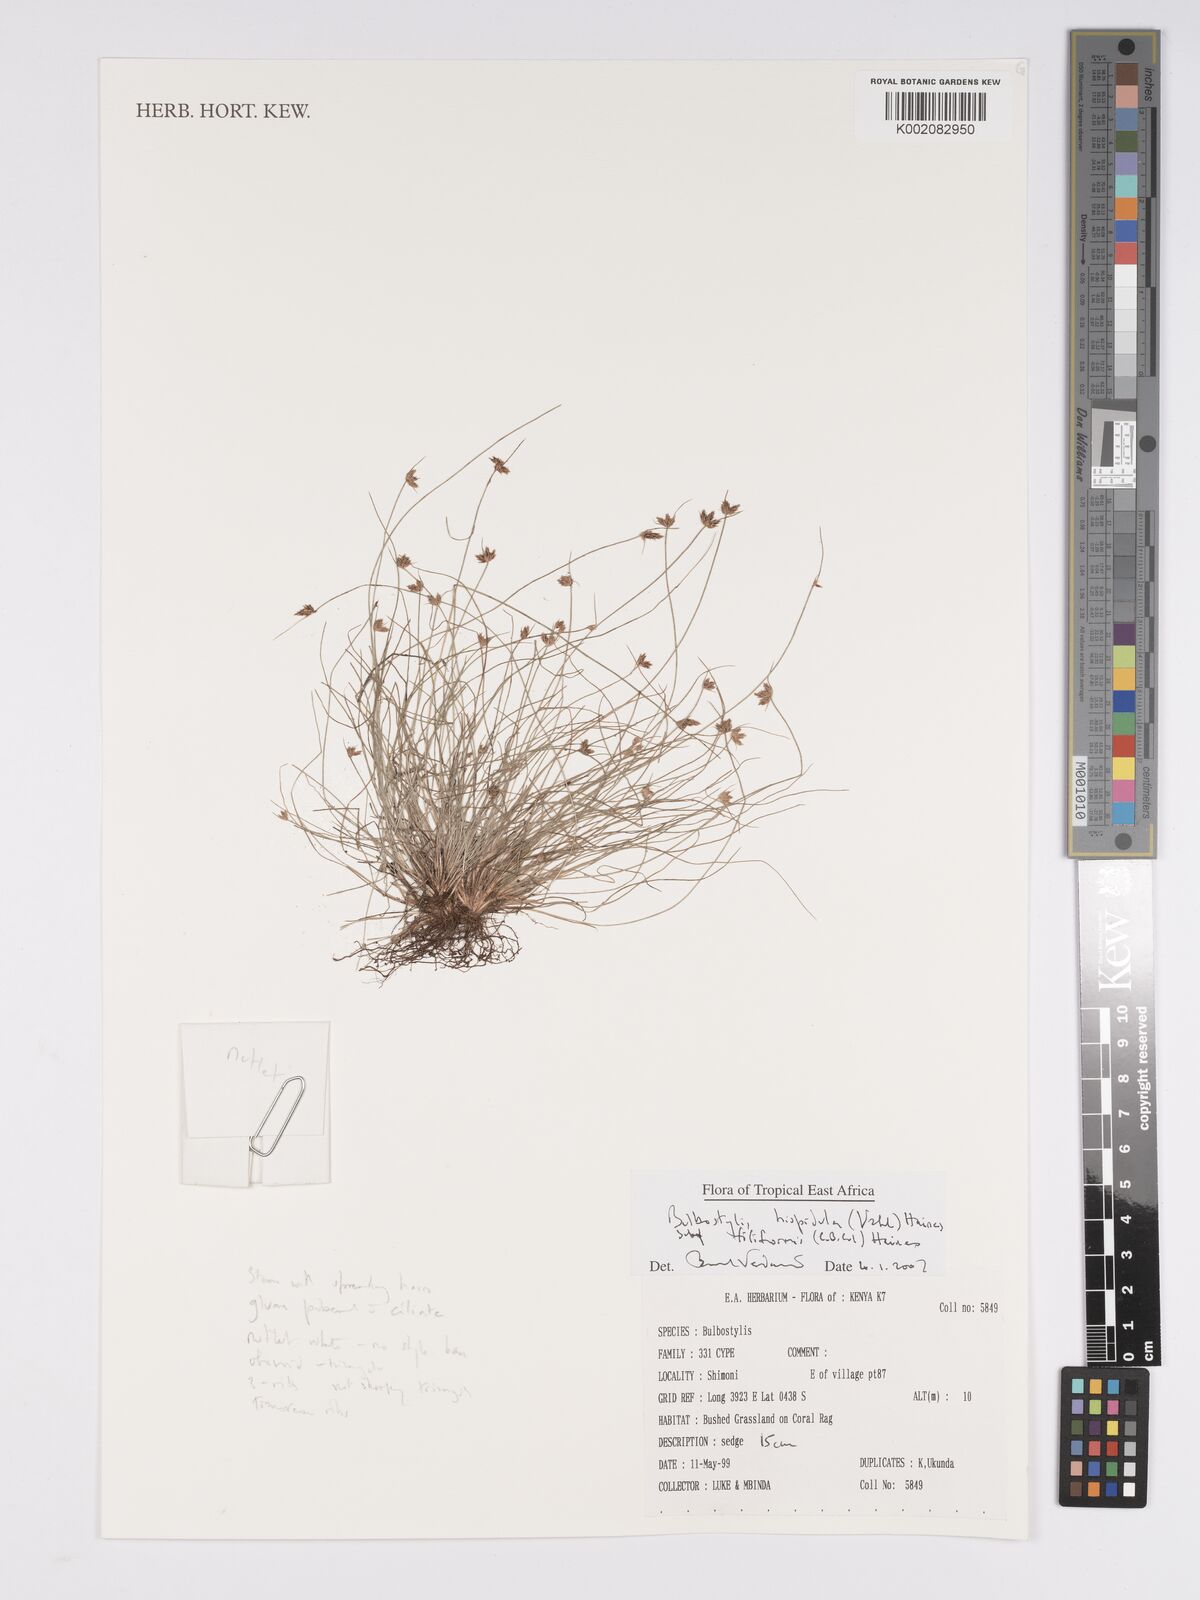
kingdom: Plantae
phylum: Tracheophyta
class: Liliopsida
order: Poales
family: Cyperaceae
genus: Bulbostylis
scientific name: Bulbostylis hispidula
